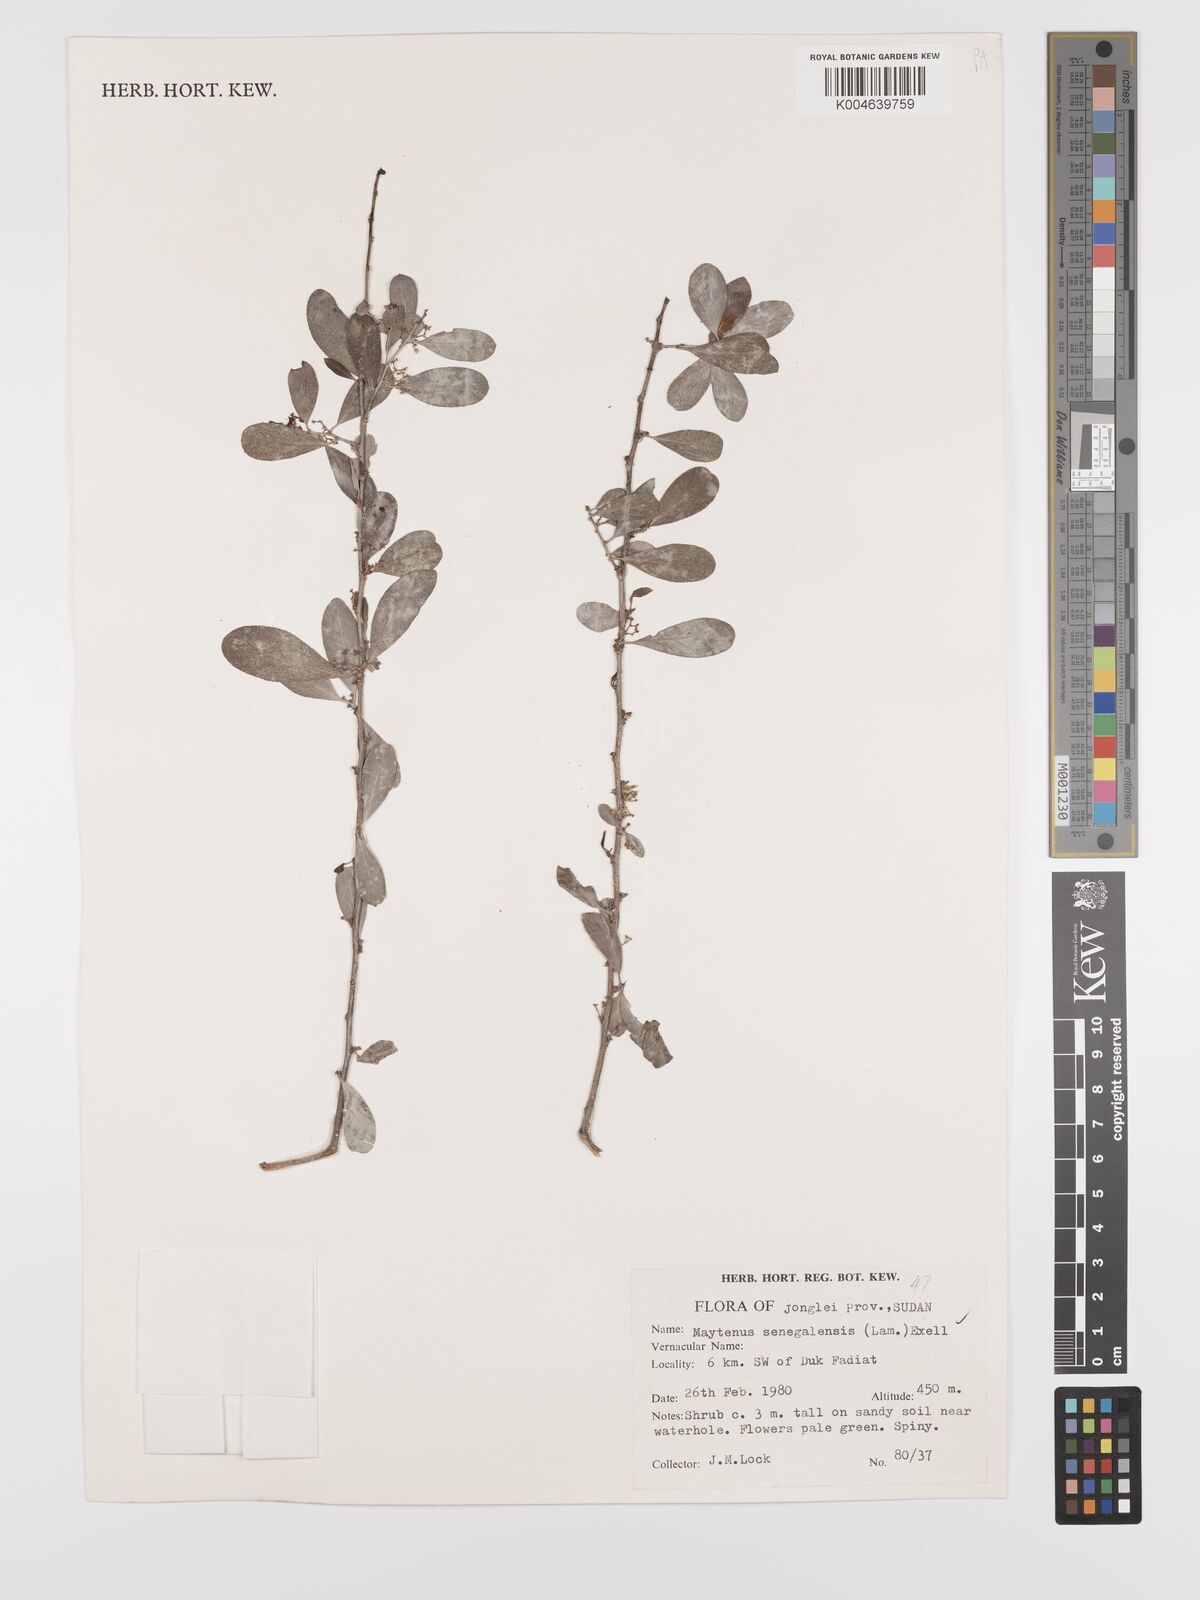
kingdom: Plantae
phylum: Tracheophyta
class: Magnoliopsida
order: Celastrales
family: Celastraceae
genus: Gymnosporia
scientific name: Gymnosporia senegalensis
